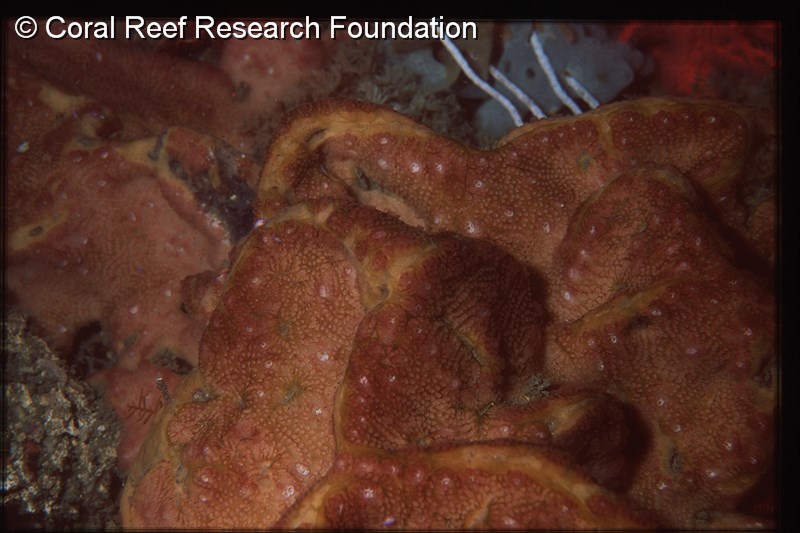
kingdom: Animalia
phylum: Chordata
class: Ascidiacea
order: Stolidobranchia
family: Styelidae
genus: Botryllus
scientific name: Botryllus gregalis
